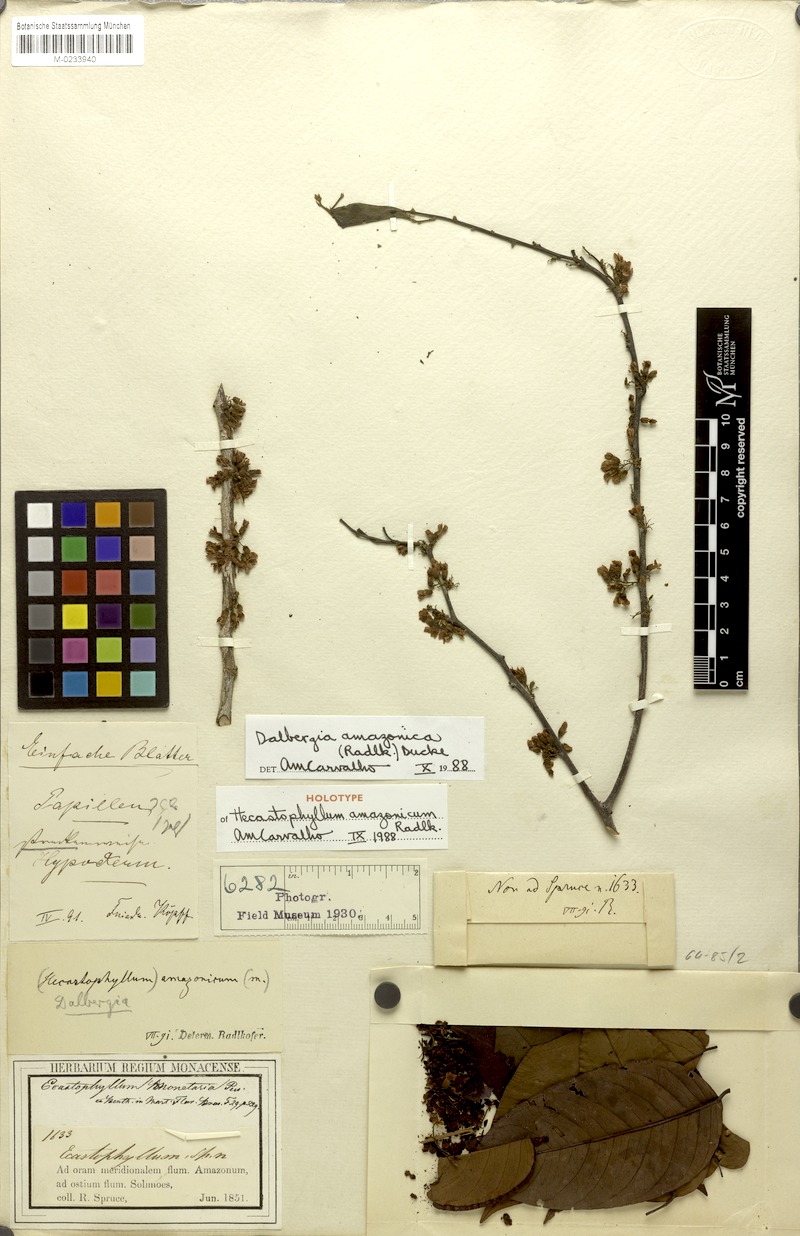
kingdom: Plantae
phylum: Tracheophyta
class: Magnoliopsida
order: Fabales
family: Fabaceae
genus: Dalbergia
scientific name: Dalbergia amazonica
